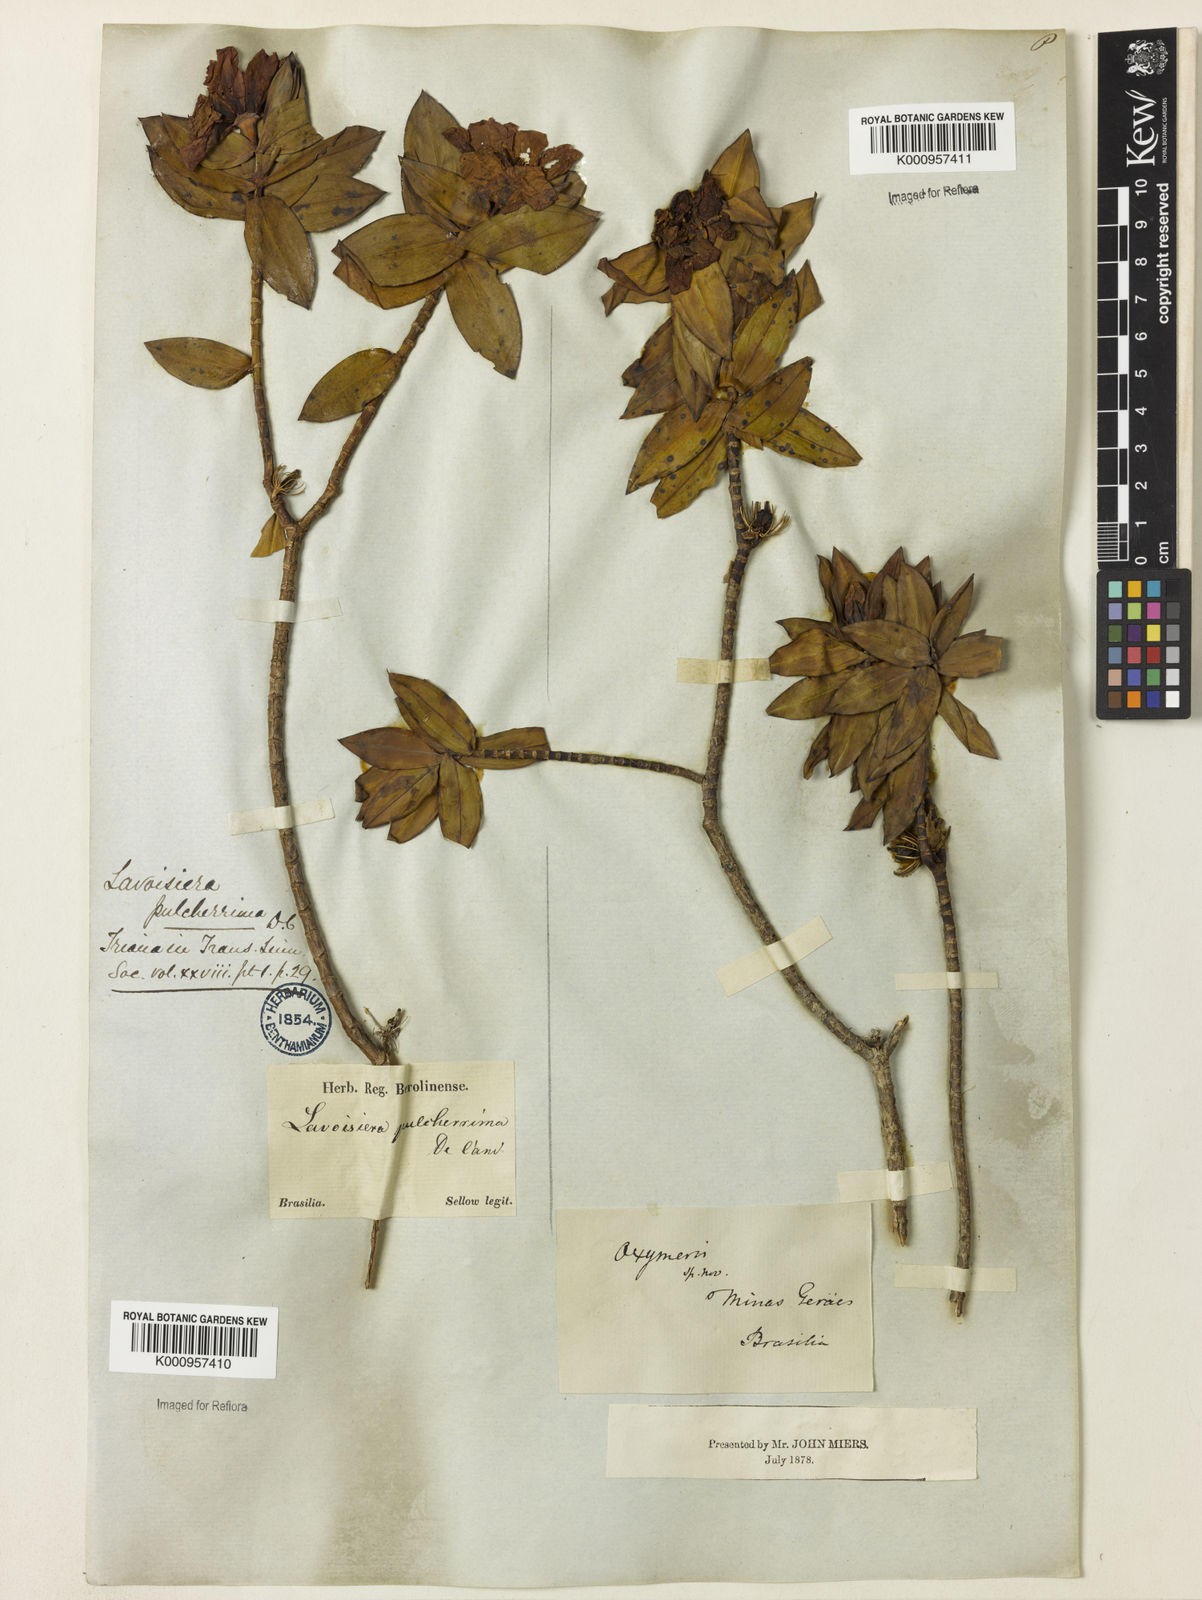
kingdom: Plantae
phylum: Tracheophyta
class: Magnoliopsida
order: Myrtales
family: Melastomataceae
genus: Microlicia
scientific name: Microlicia pulcherrima
